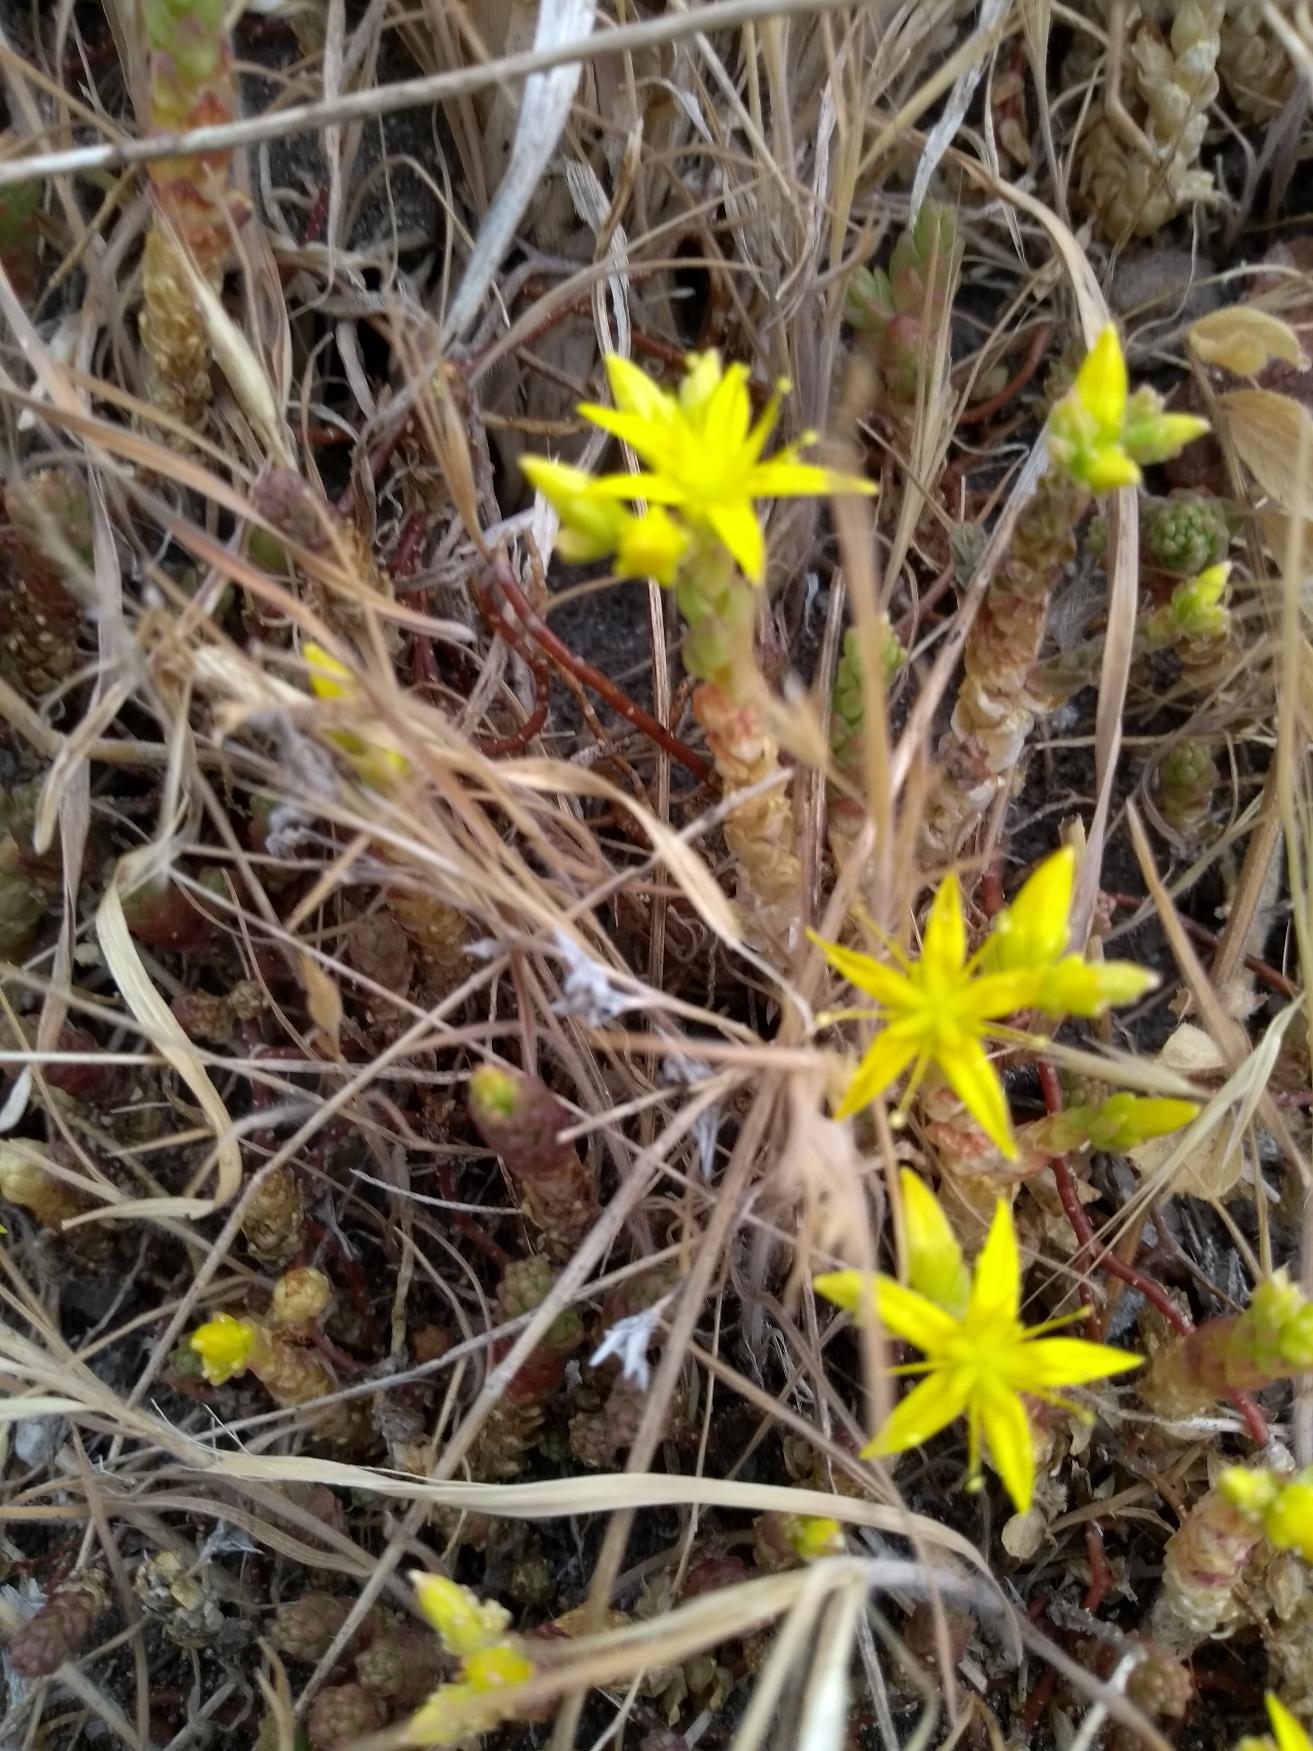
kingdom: Plantae
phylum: Tracheophyta
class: Magnoliopsida
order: Saxifragales
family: Crassulaceae
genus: Sedum
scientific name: Sedum acre
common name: Bidende stenurt
